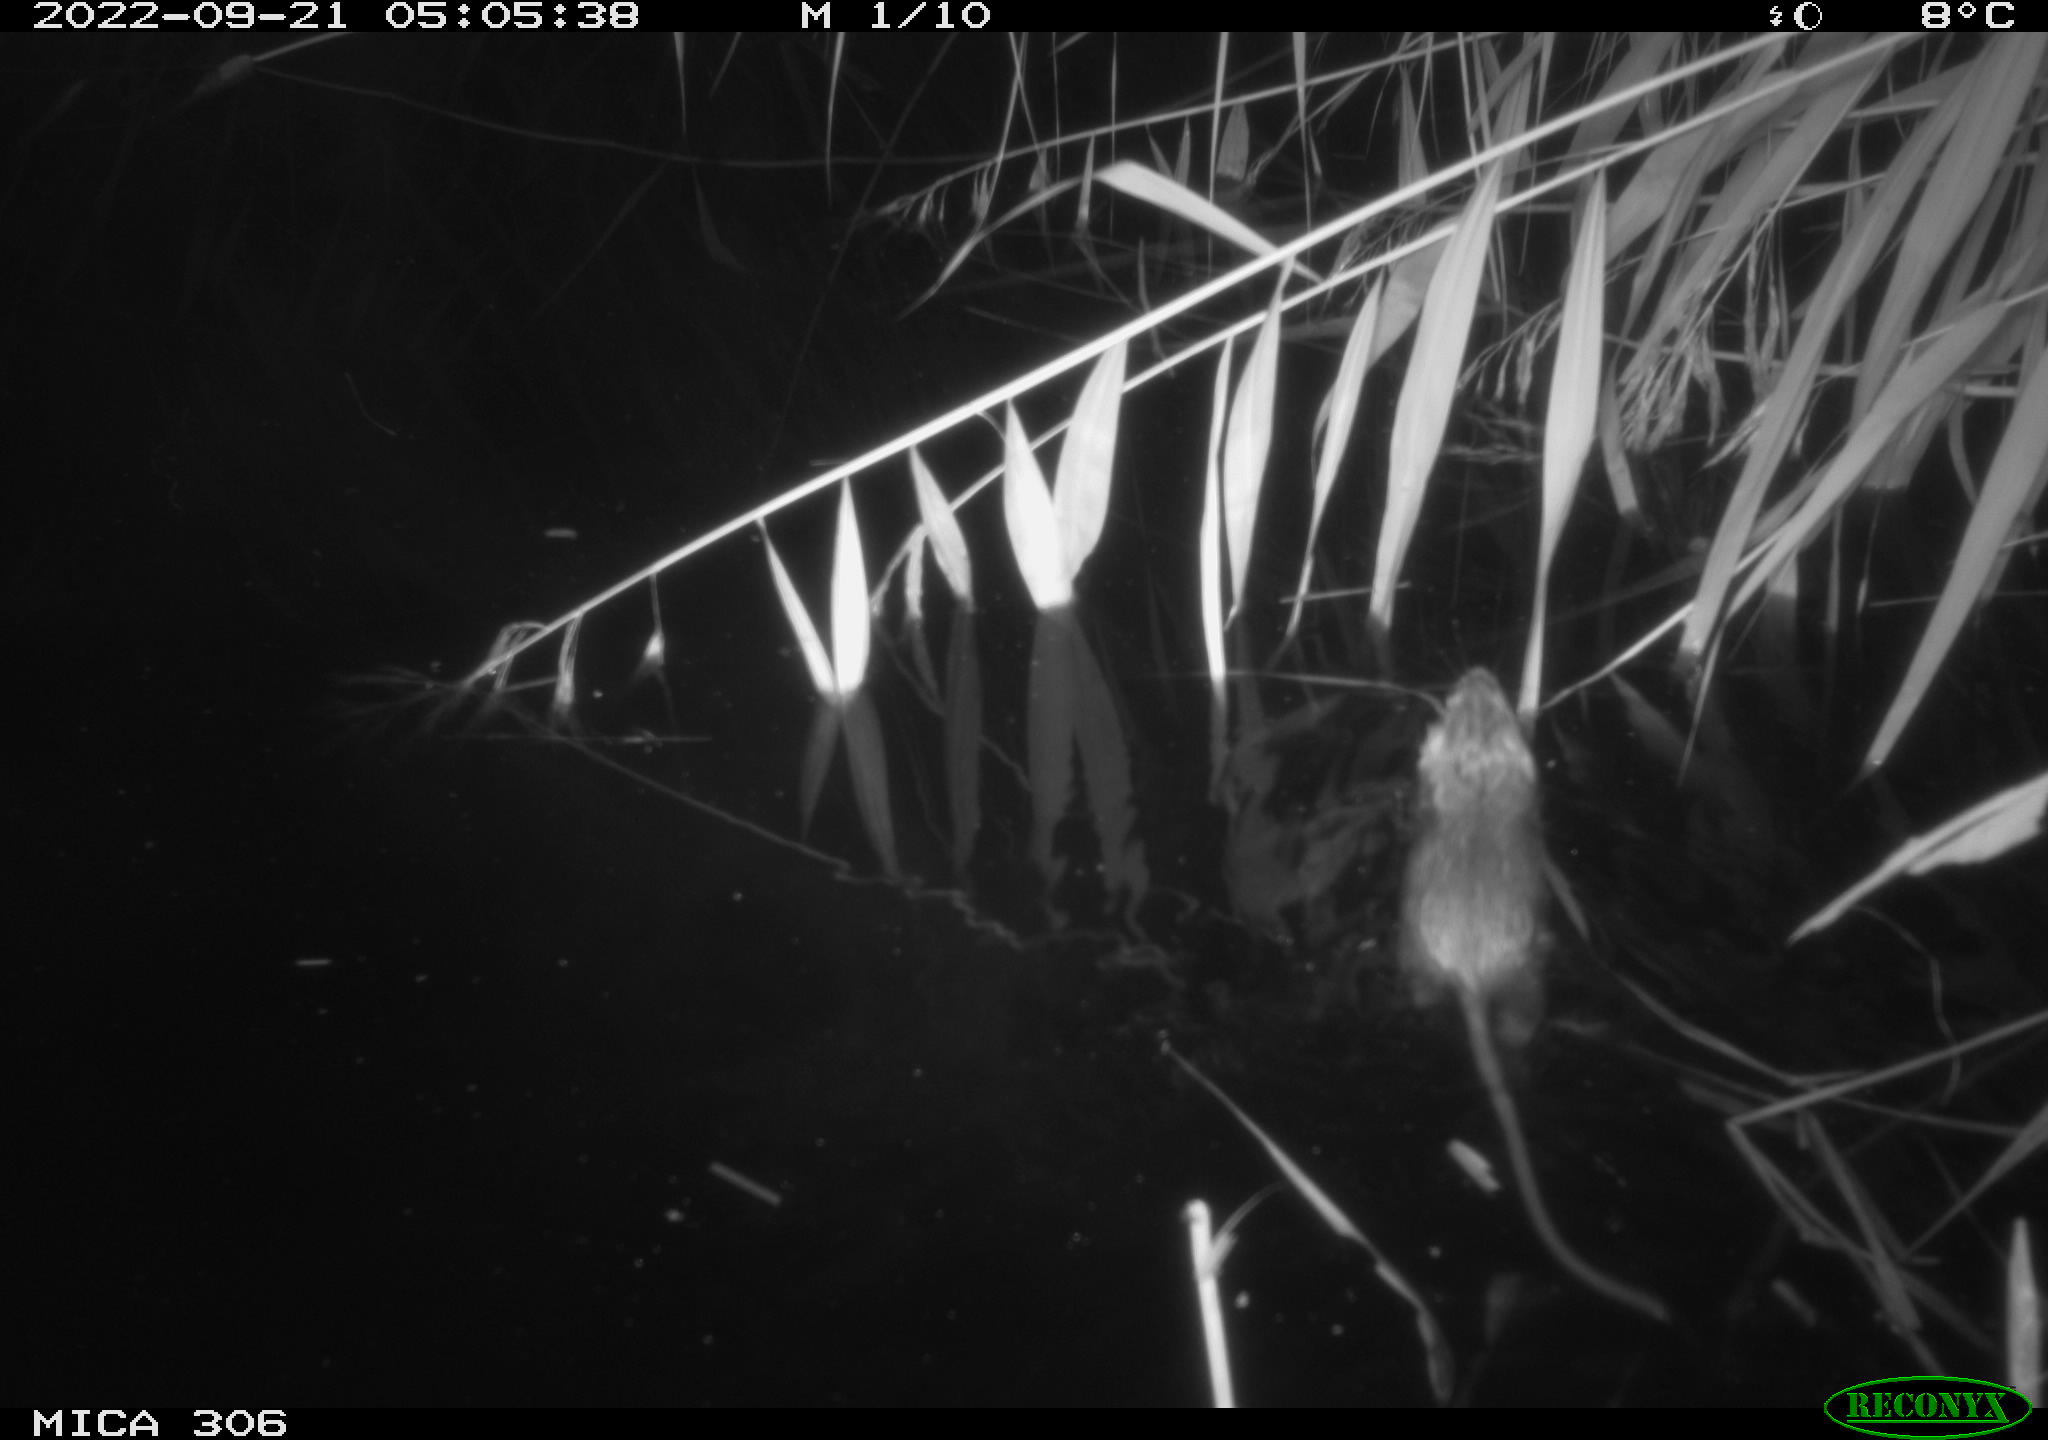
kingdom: Animalia
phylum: Chordata
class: Mammalia
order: Rodentia
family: Muridae
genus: Rattus
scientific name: Rattus norvegicus
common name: Brown rat
